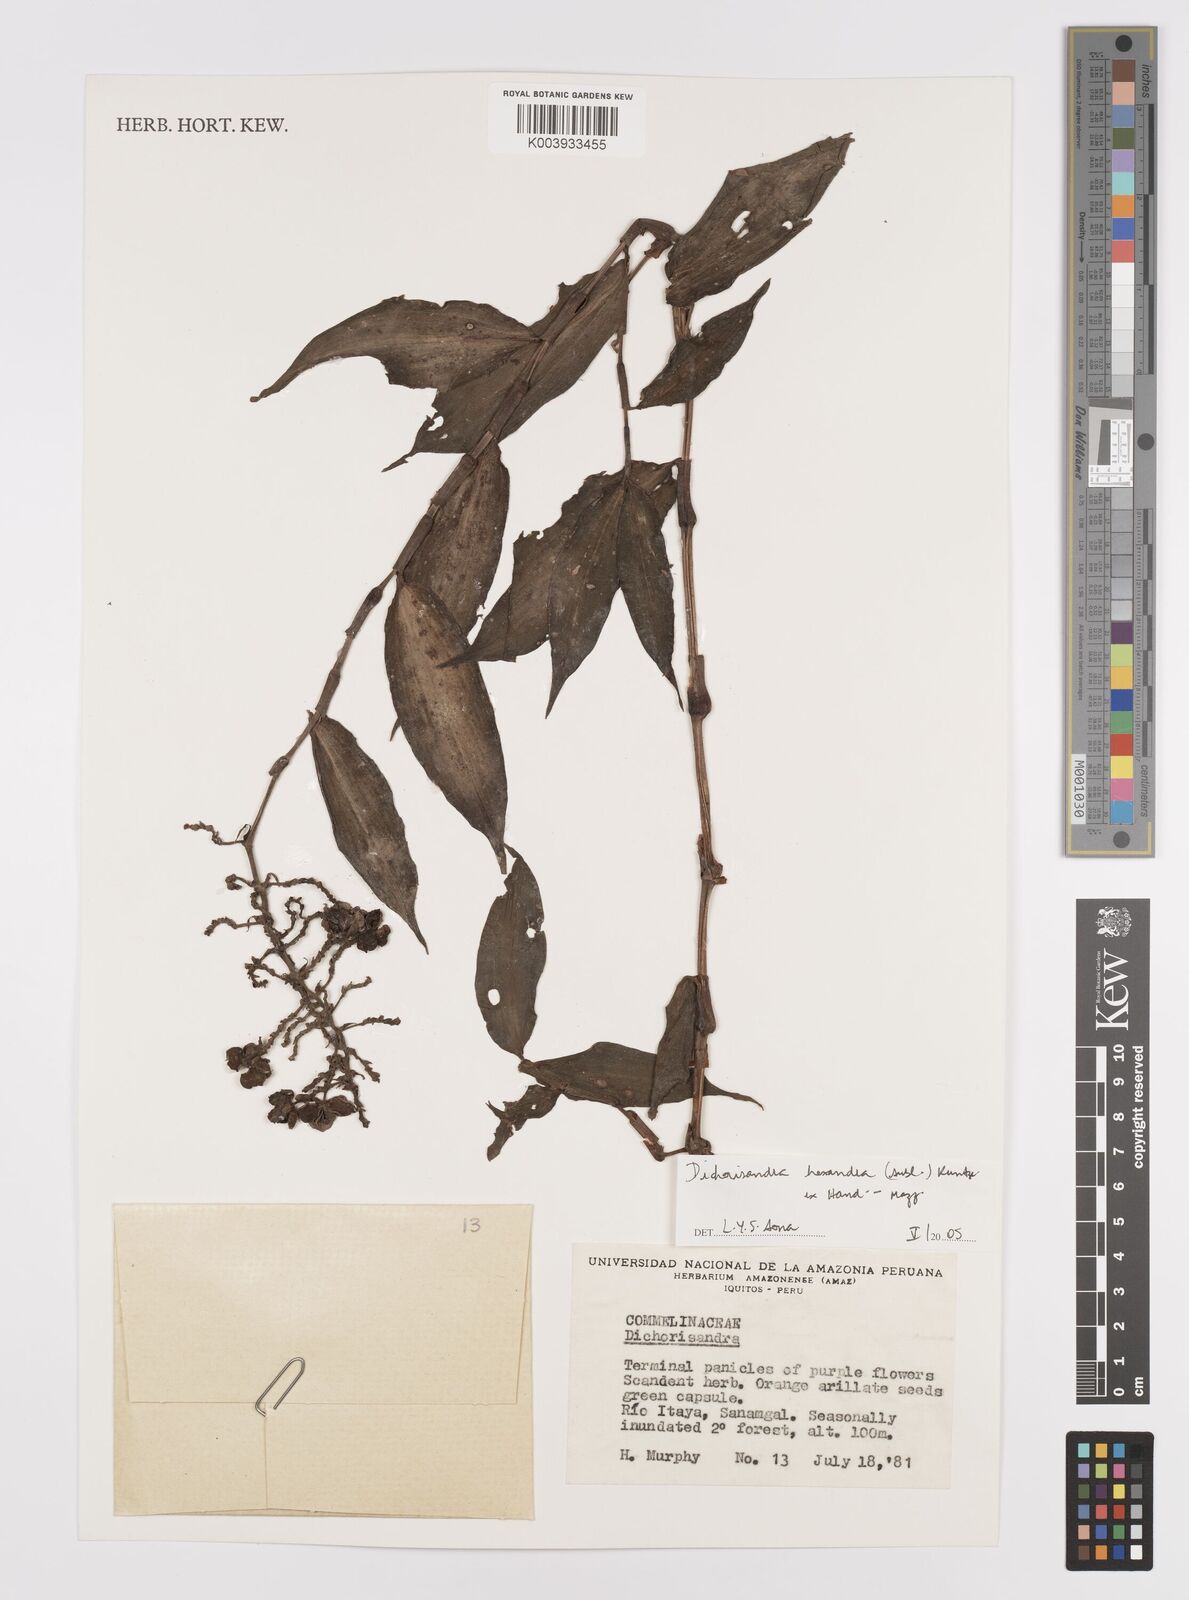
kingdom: Plantae
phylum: Tracheophyta
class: Liliopsida
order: Commelinales
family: Commelinaceae
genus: Dichorisandra
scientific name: Dichorisandra hexandra
